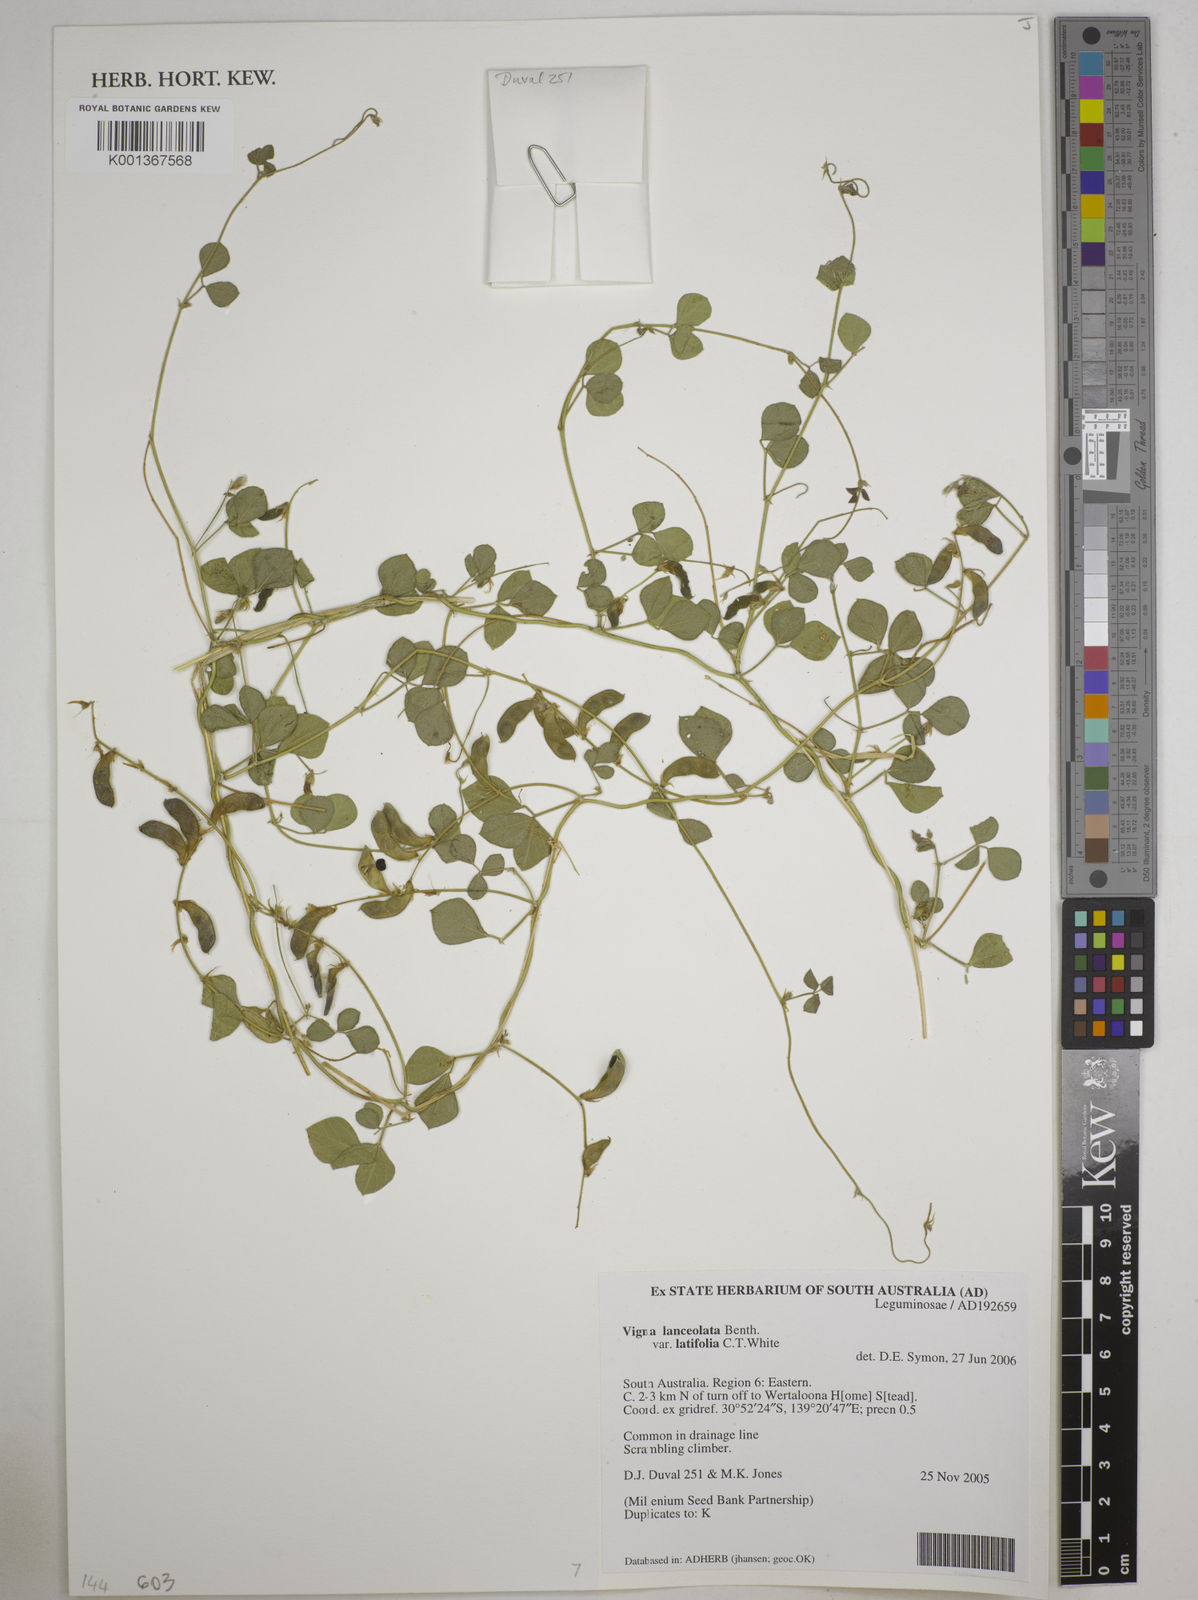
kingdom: Plantae
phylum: Tracheophyta
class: Magnoliopsida
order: Fabales
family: Fabaceae
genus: Vigna
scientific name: Vigna lanceolata
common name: Maloga-bean
